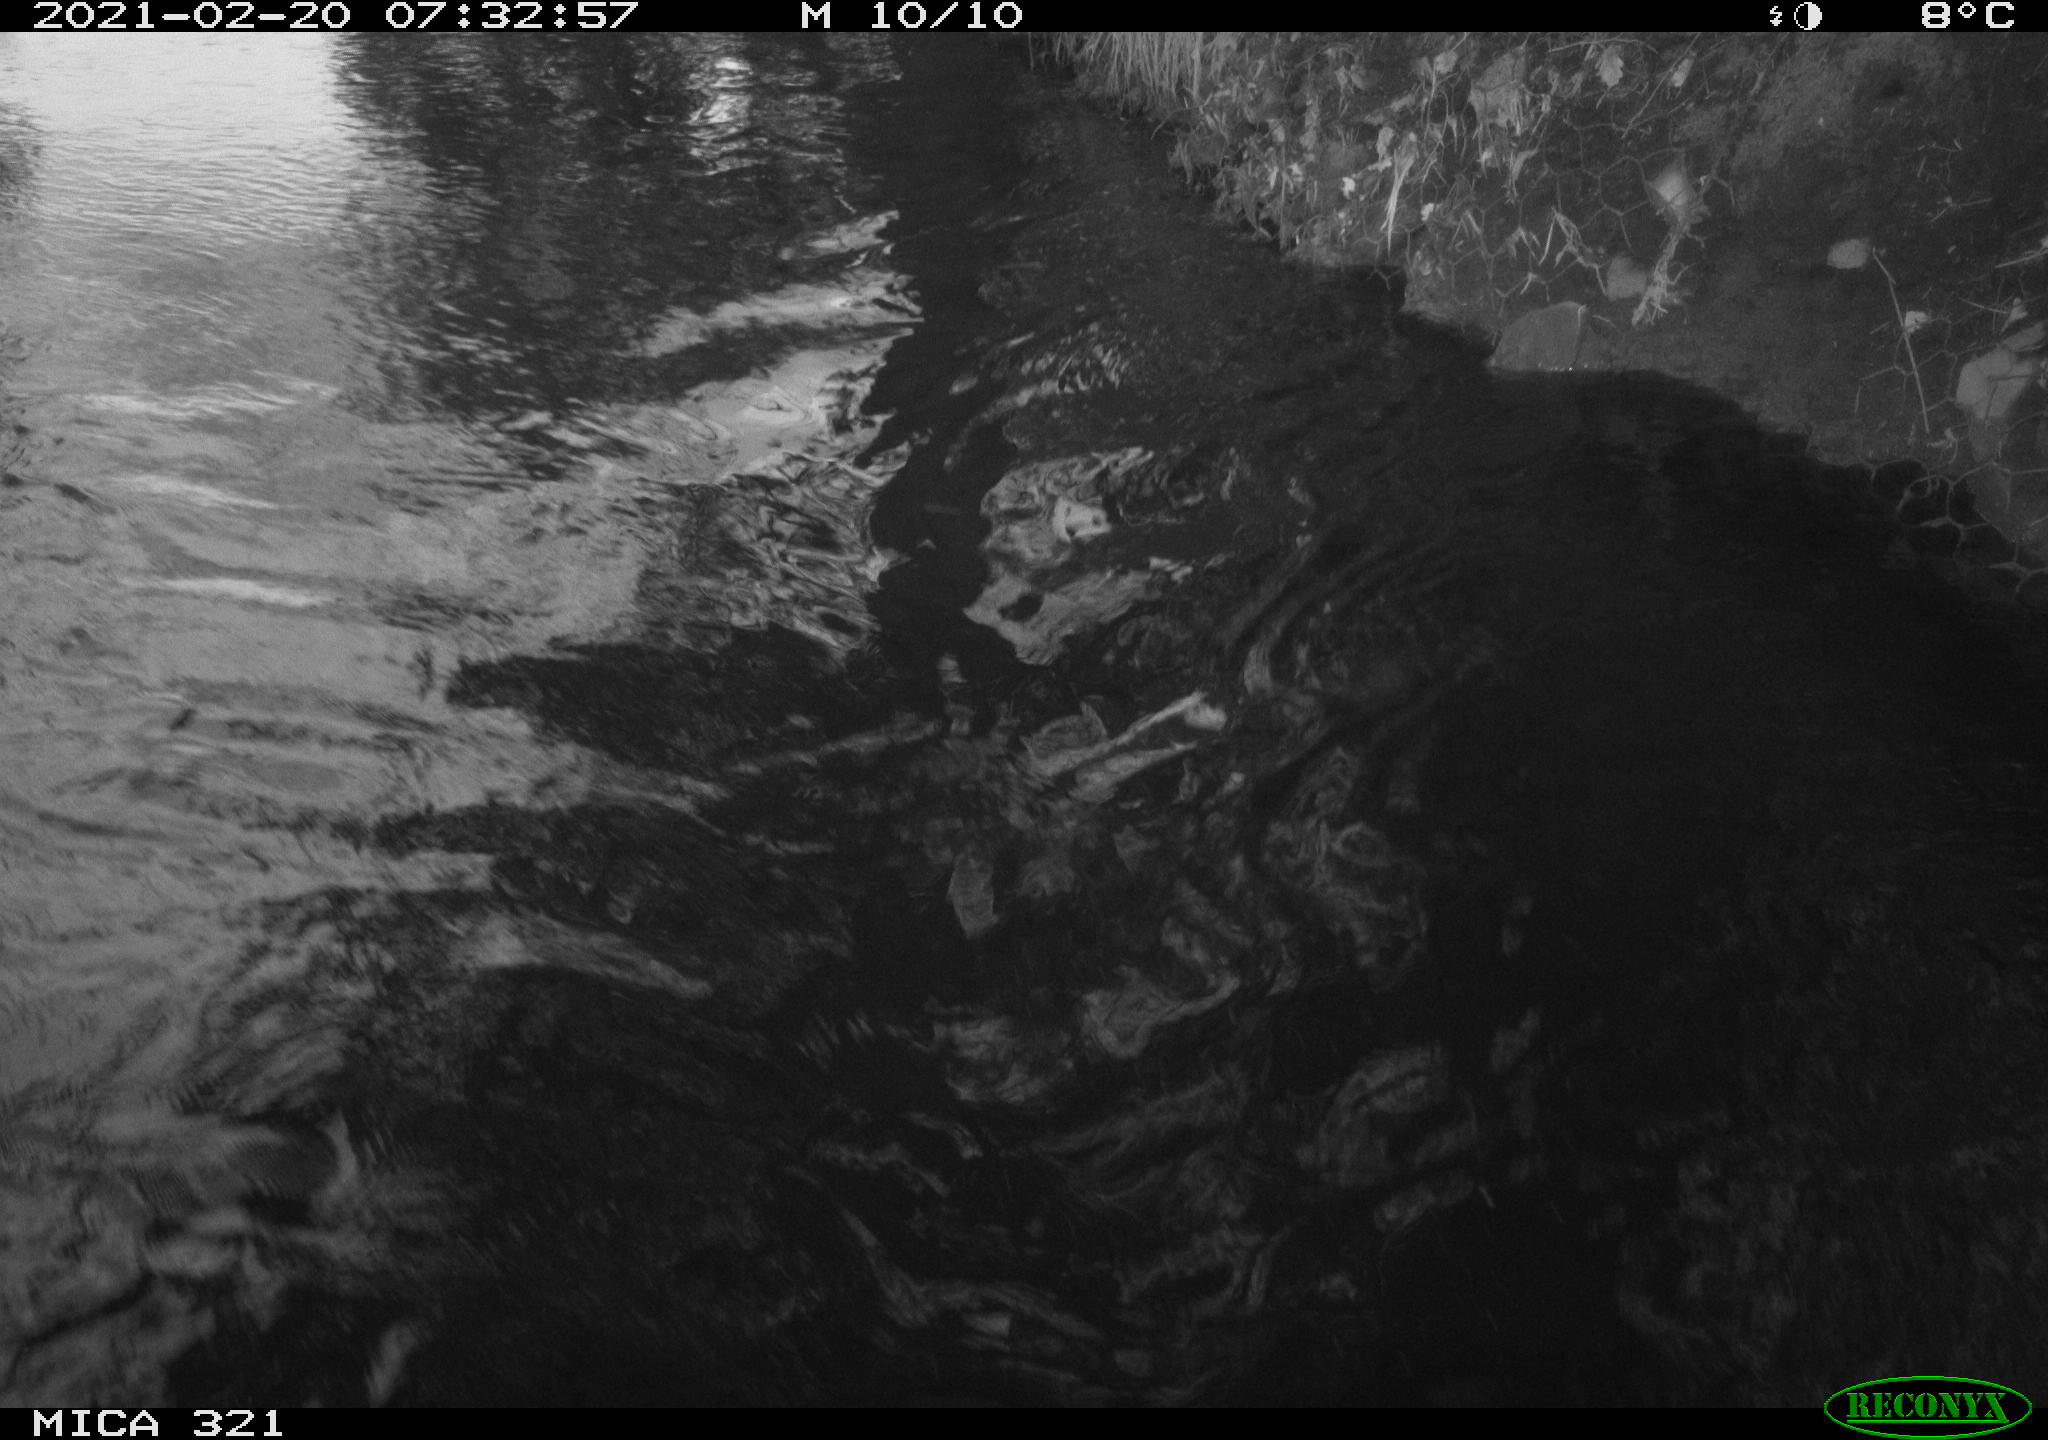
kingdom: Animalia
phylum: Chordata
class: Aves
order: Anseriformes
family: Anatidae
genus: Anas
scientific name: Anas platyrhynchos
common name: Mallard
